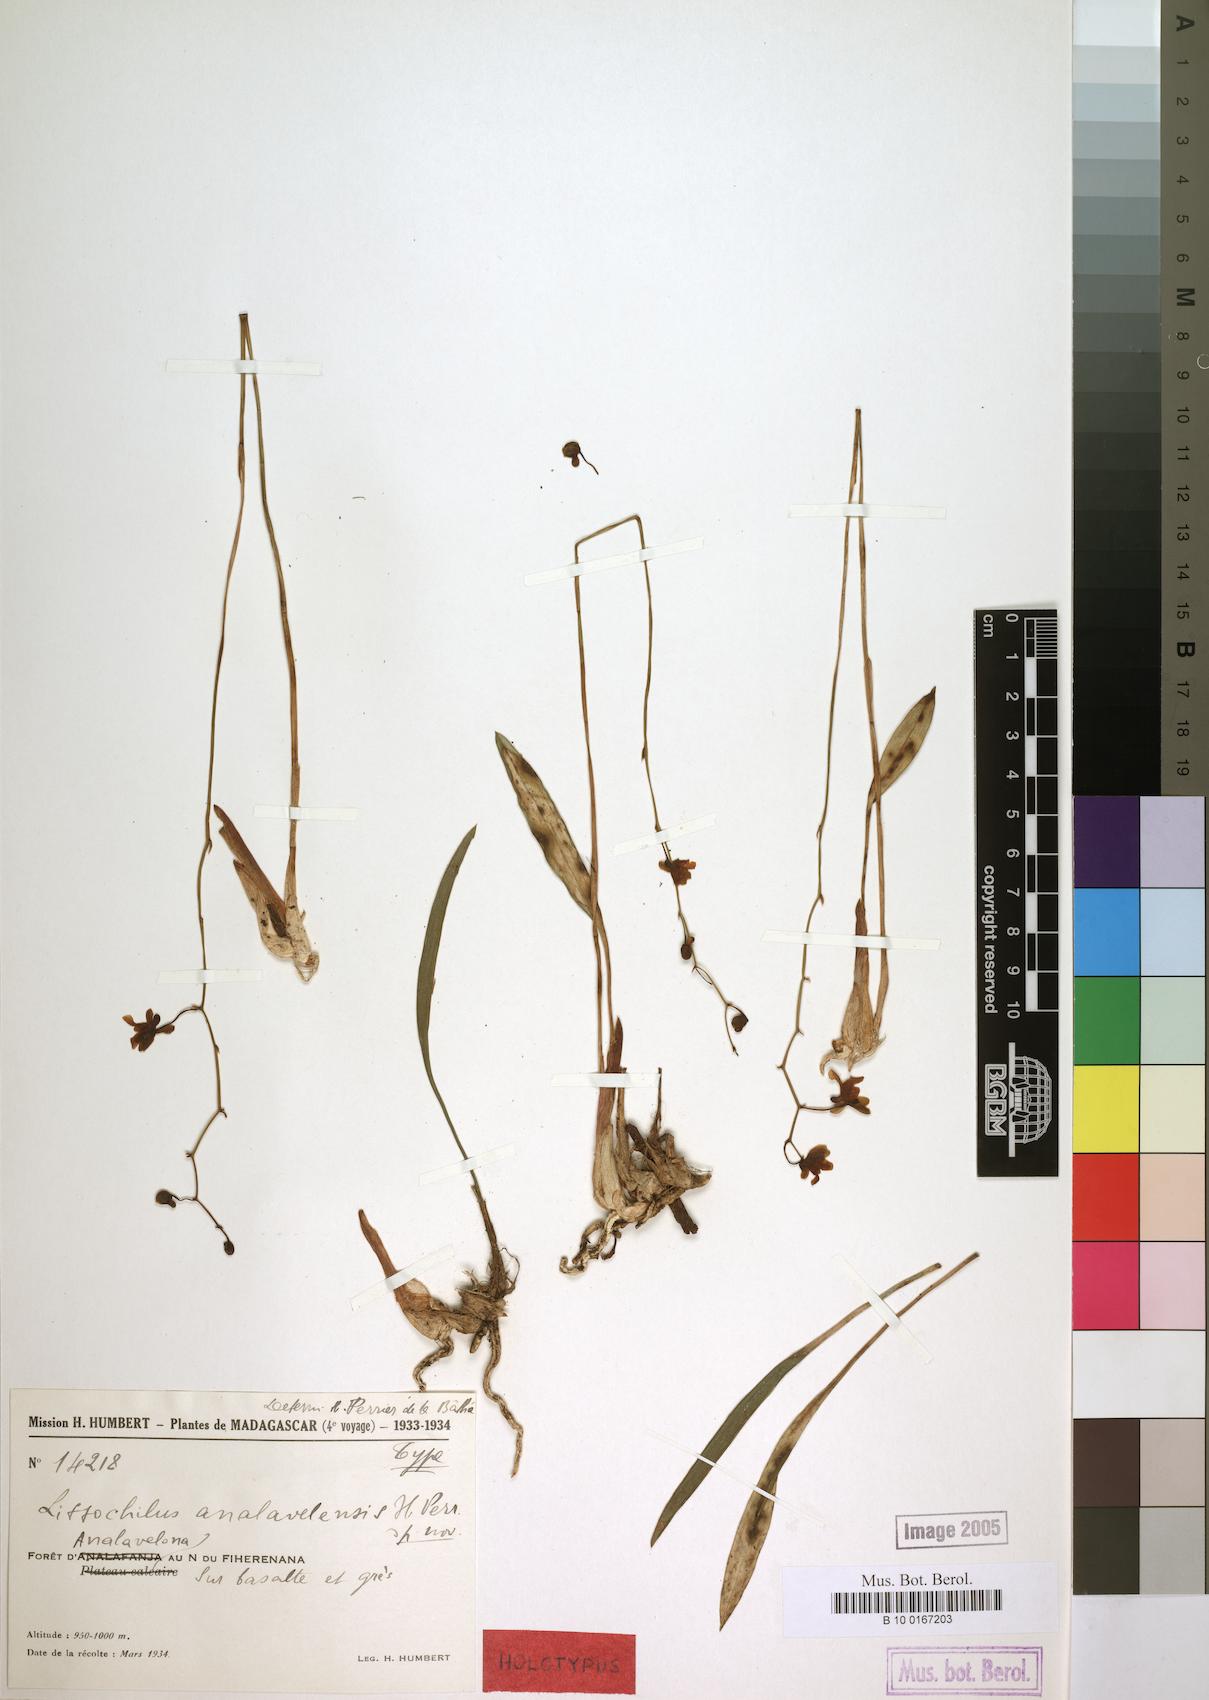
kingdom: Plantae
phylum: Tracheophyta
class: Liliopsida
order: Asparagales
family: Orchidaceae
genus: Eulophia
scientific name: Eulophia analavelensis
